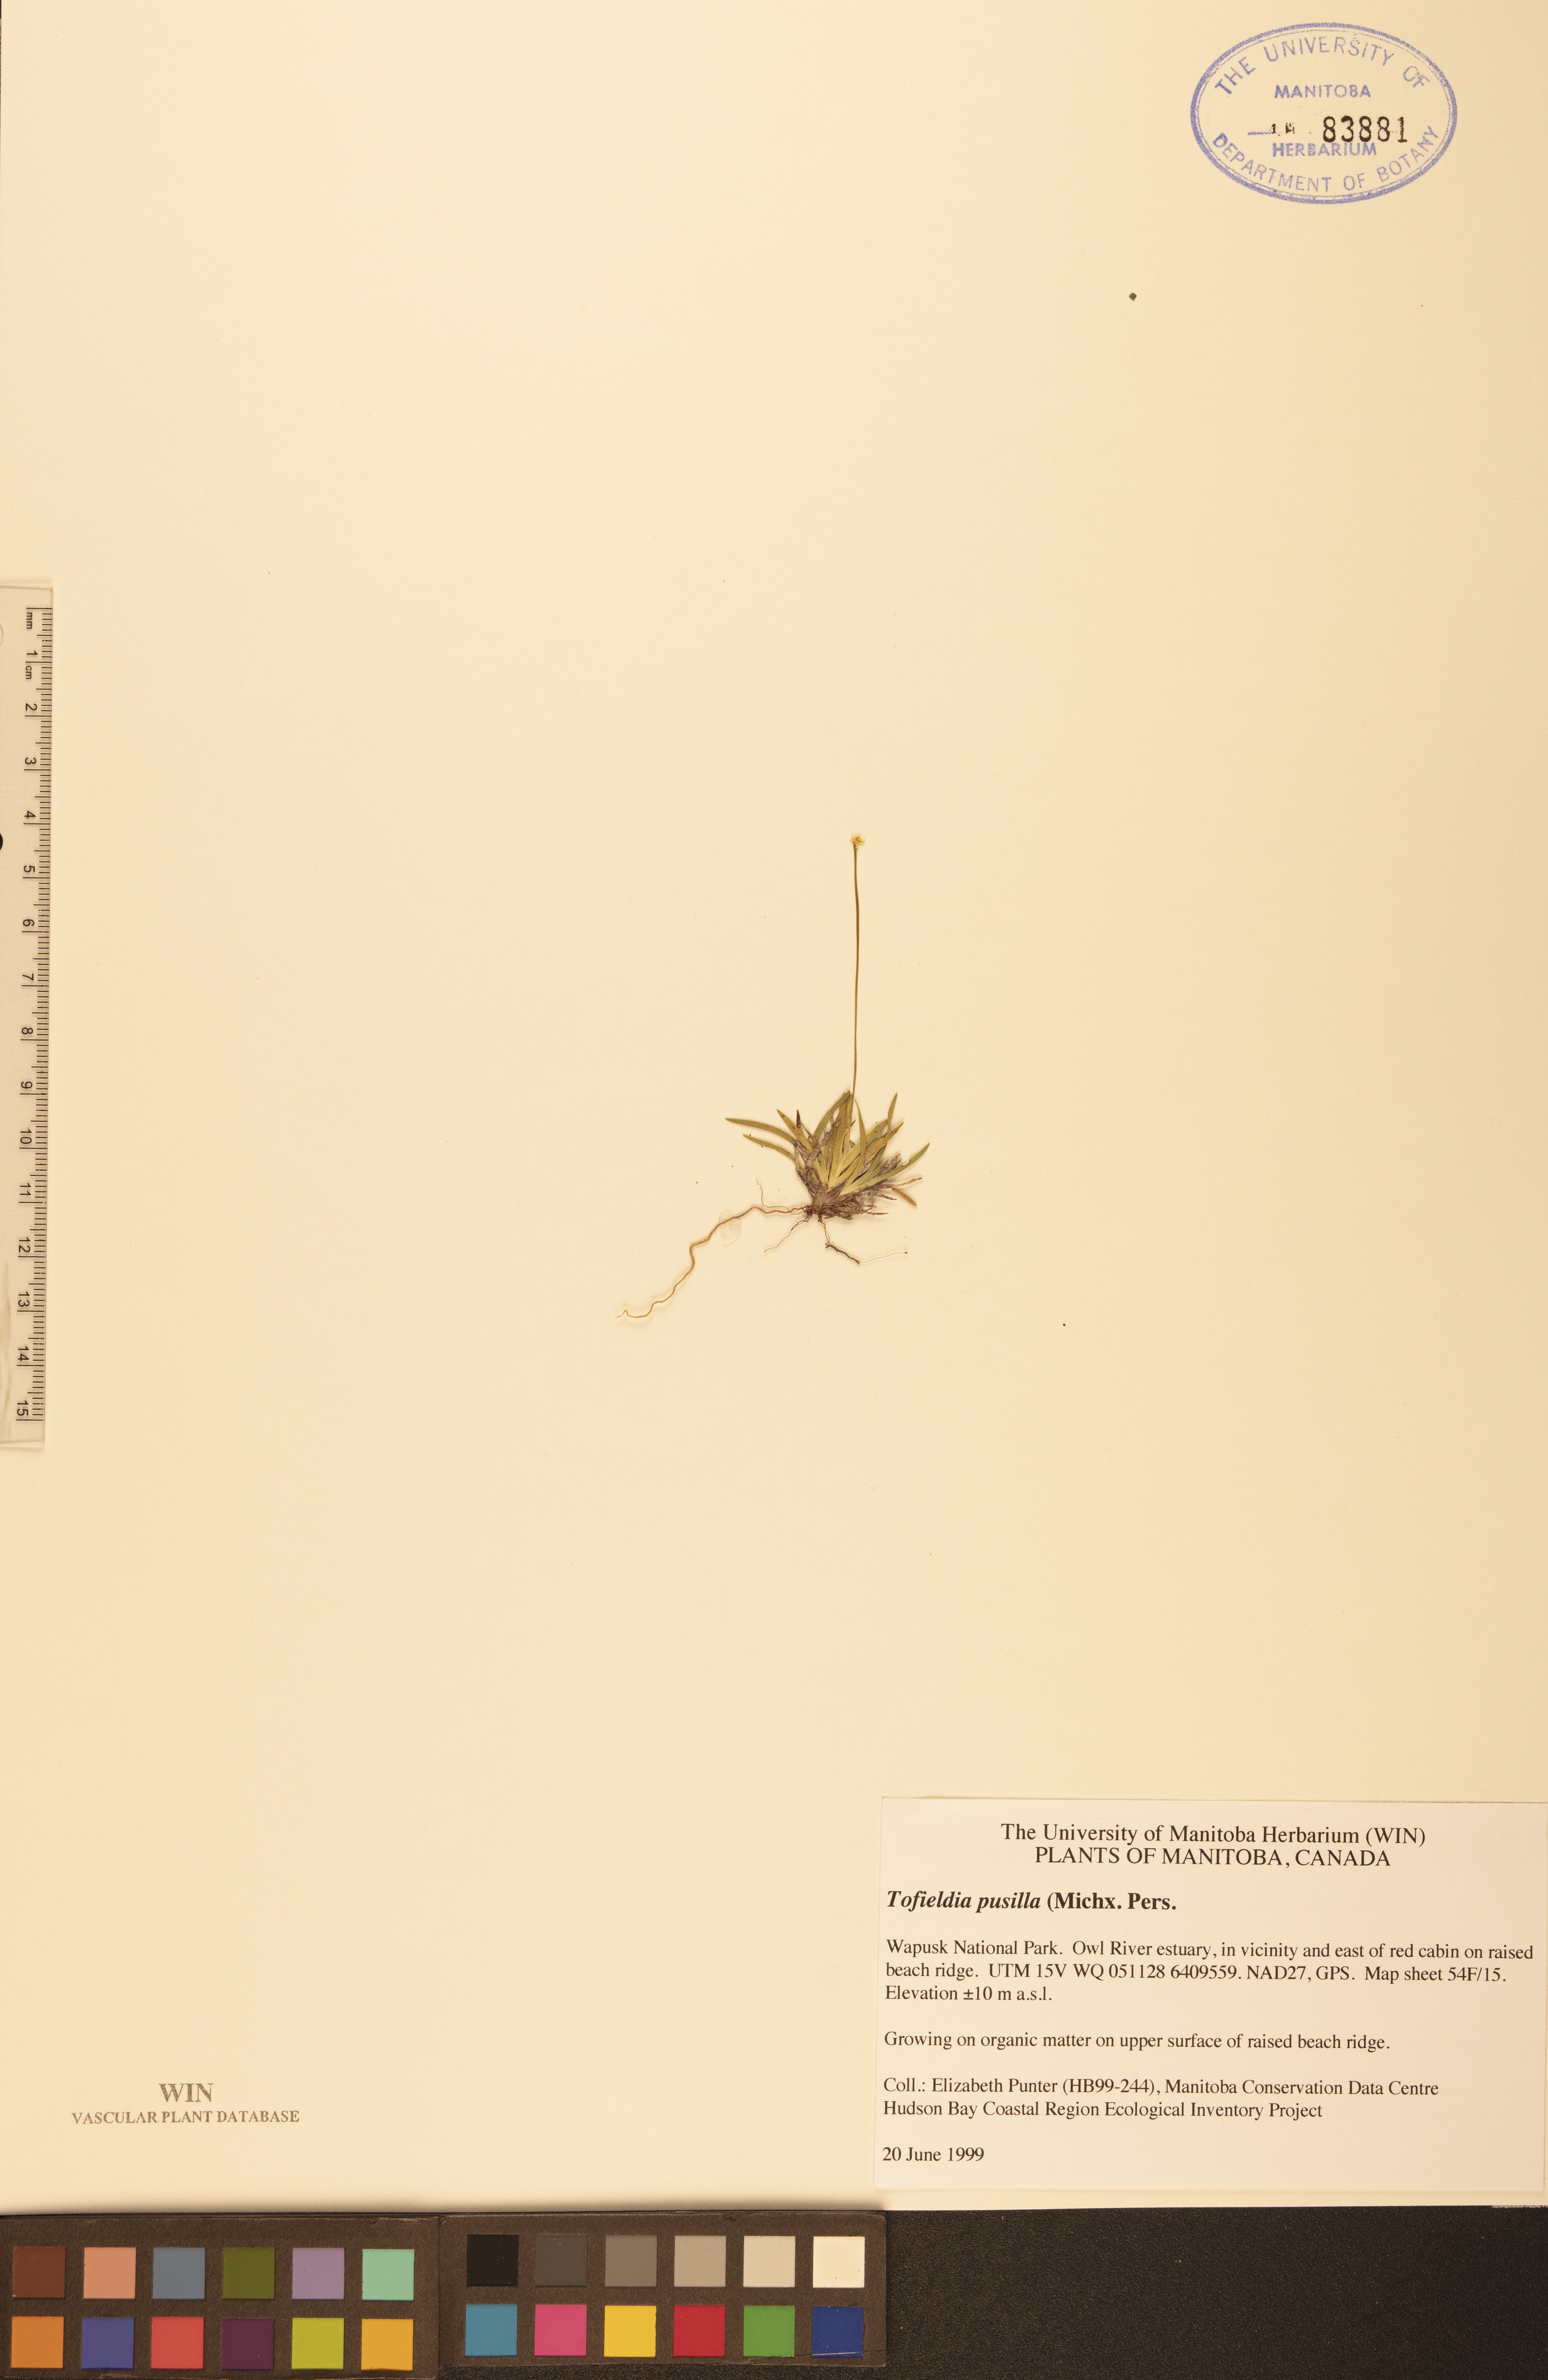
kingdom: Plantae
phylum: Tracheophyta
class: Liliopsida
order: Alismatales
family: Tofieldiaceae
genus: Tofieldia
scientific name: Tofieldia pusilla
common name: Scottish false asphodel
